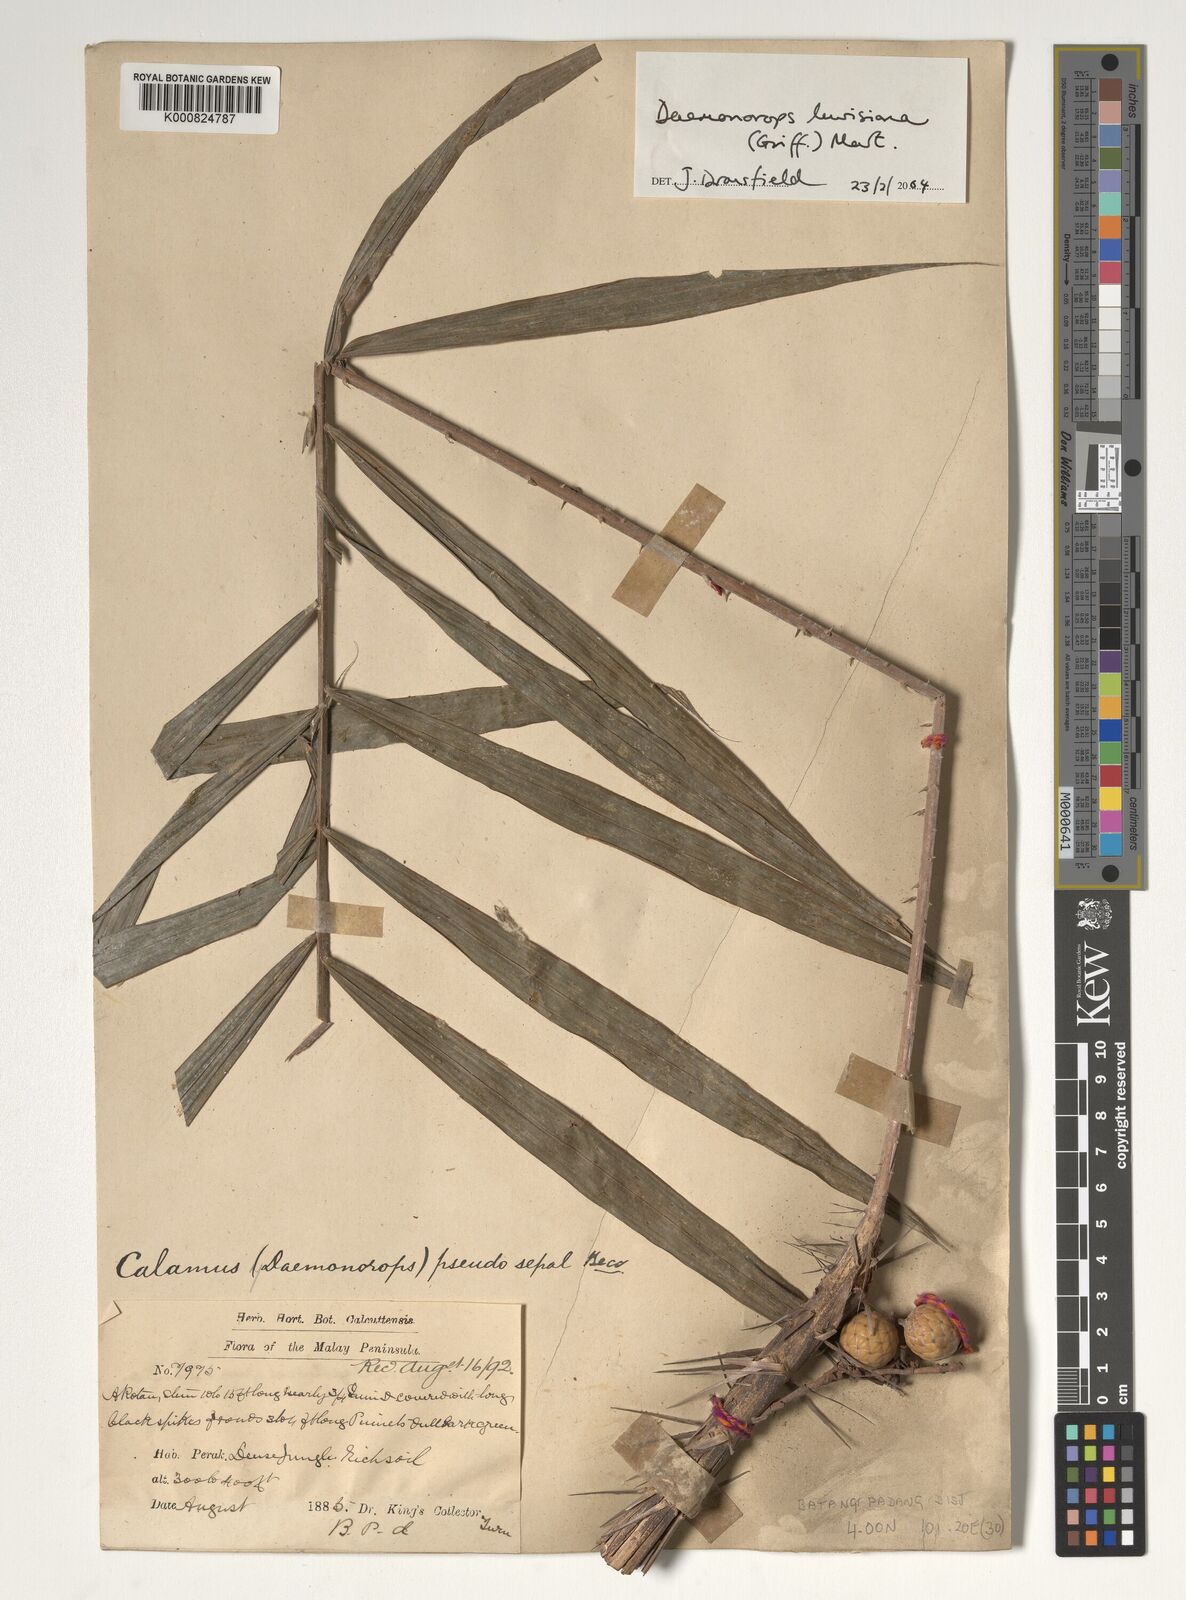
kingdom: Plantae
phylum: Tracheophyta
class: Liliopsida
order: Arecales
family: Arecaceae
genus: Calamus
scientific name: Calamus melanochaetes
